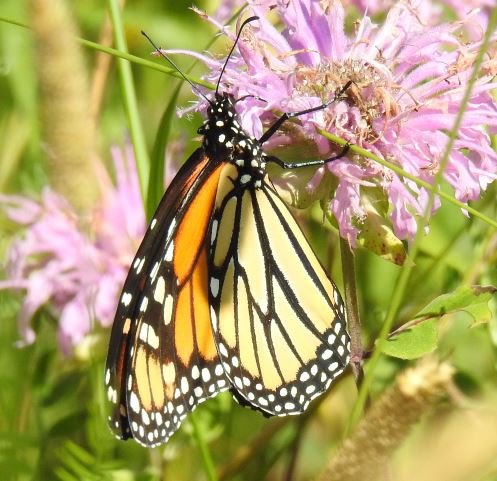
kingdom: Animalia
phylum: Arthropoda
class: Insecta
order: Lepidoptera
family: Nymphalidae
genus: Danaus
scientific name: Danaus plexippus
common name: Monarch
